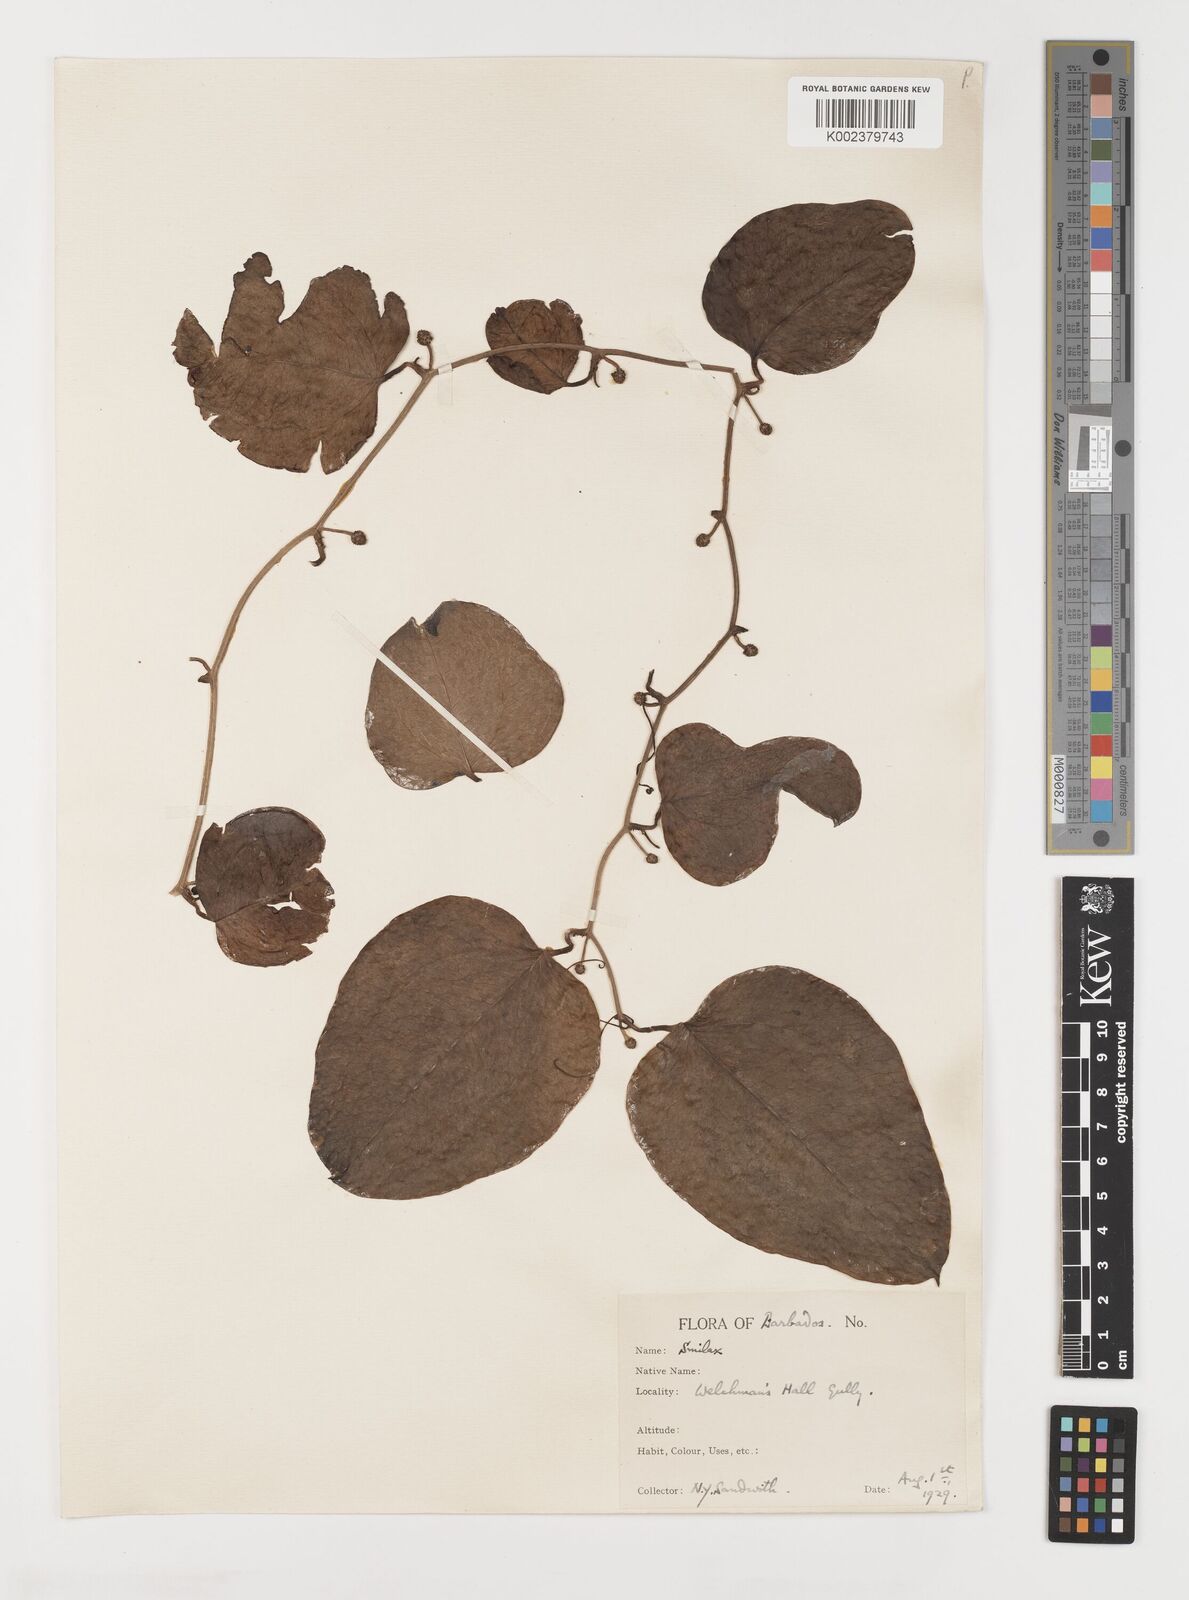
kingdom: Plantae
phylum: Tracheophyta
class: Liliopsida
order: Liliales
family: Smilacaceae
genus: Smilax
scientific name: Smilax guianensis
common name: Basket hoop
